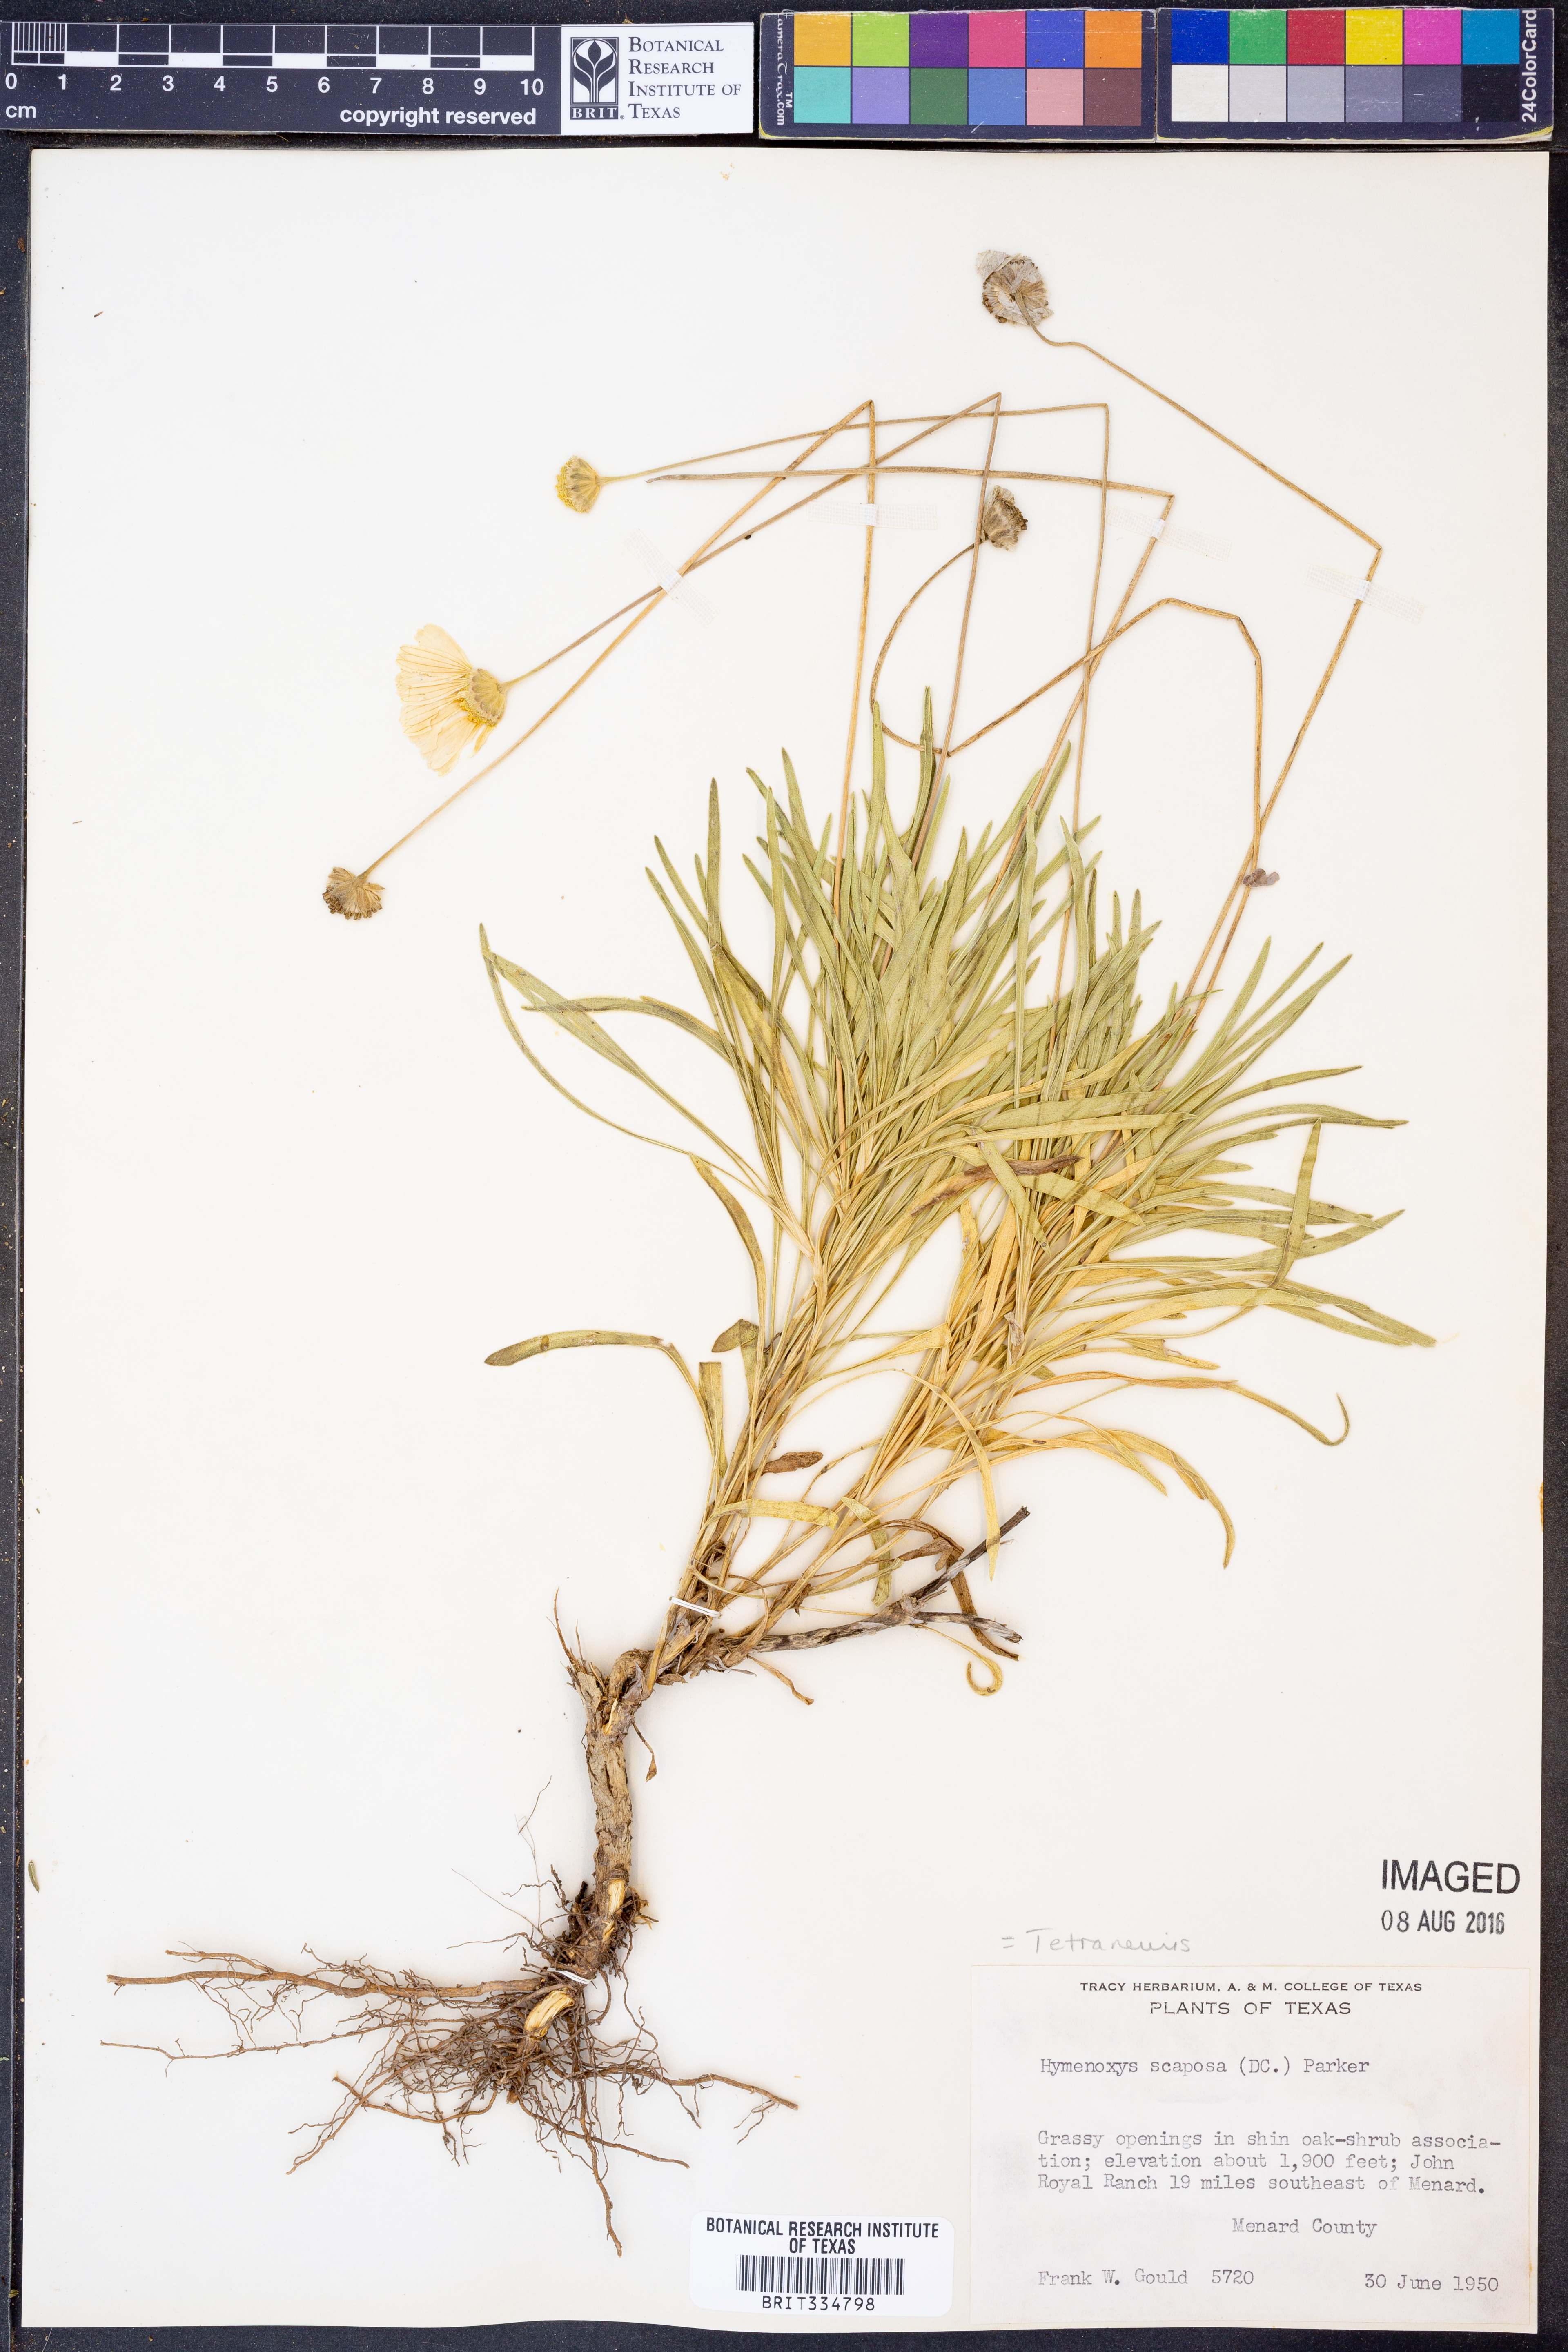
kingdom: Plantae
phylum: Tracheophyta
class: Magnoliopsida
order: Asterales
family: Asteraceae
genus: Tetraneuris
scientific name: Tetraneuris scaposa
